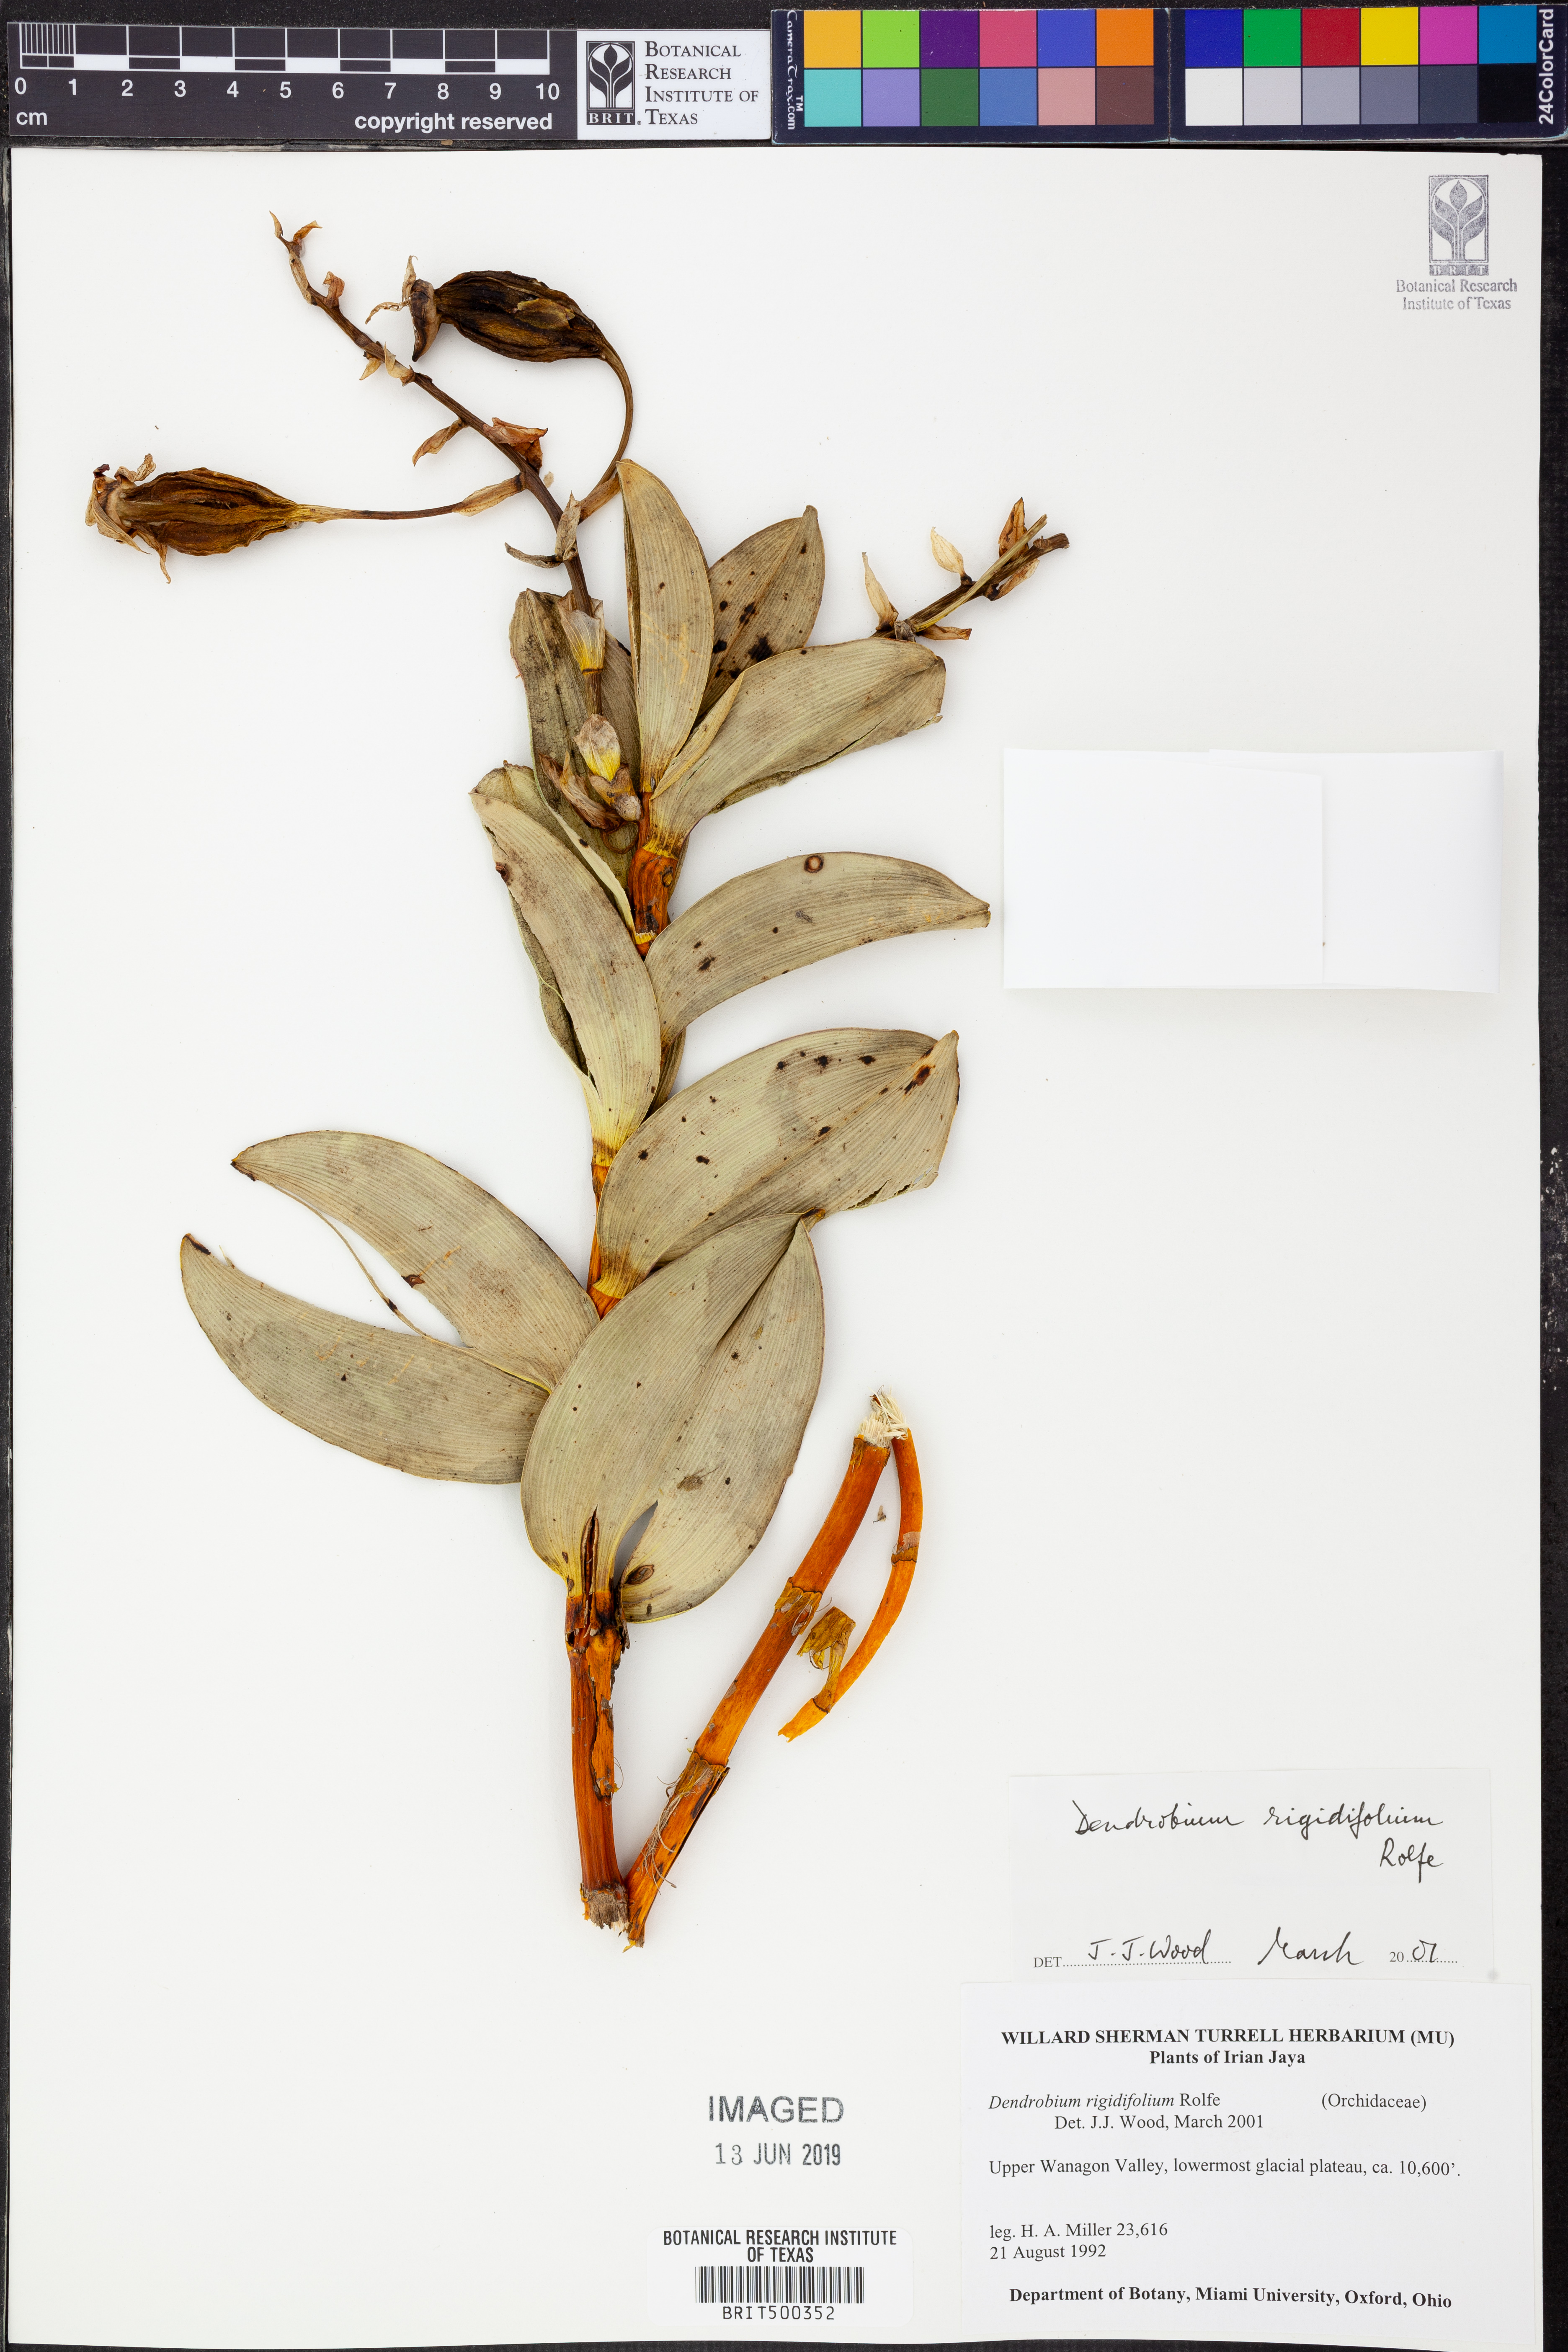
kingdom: Plantae
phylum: Tracheophyta
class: Liliopsida
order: Asparagales
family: Orchidaceae
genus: Dendrobium
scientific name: Dendrobium rigidifolium
